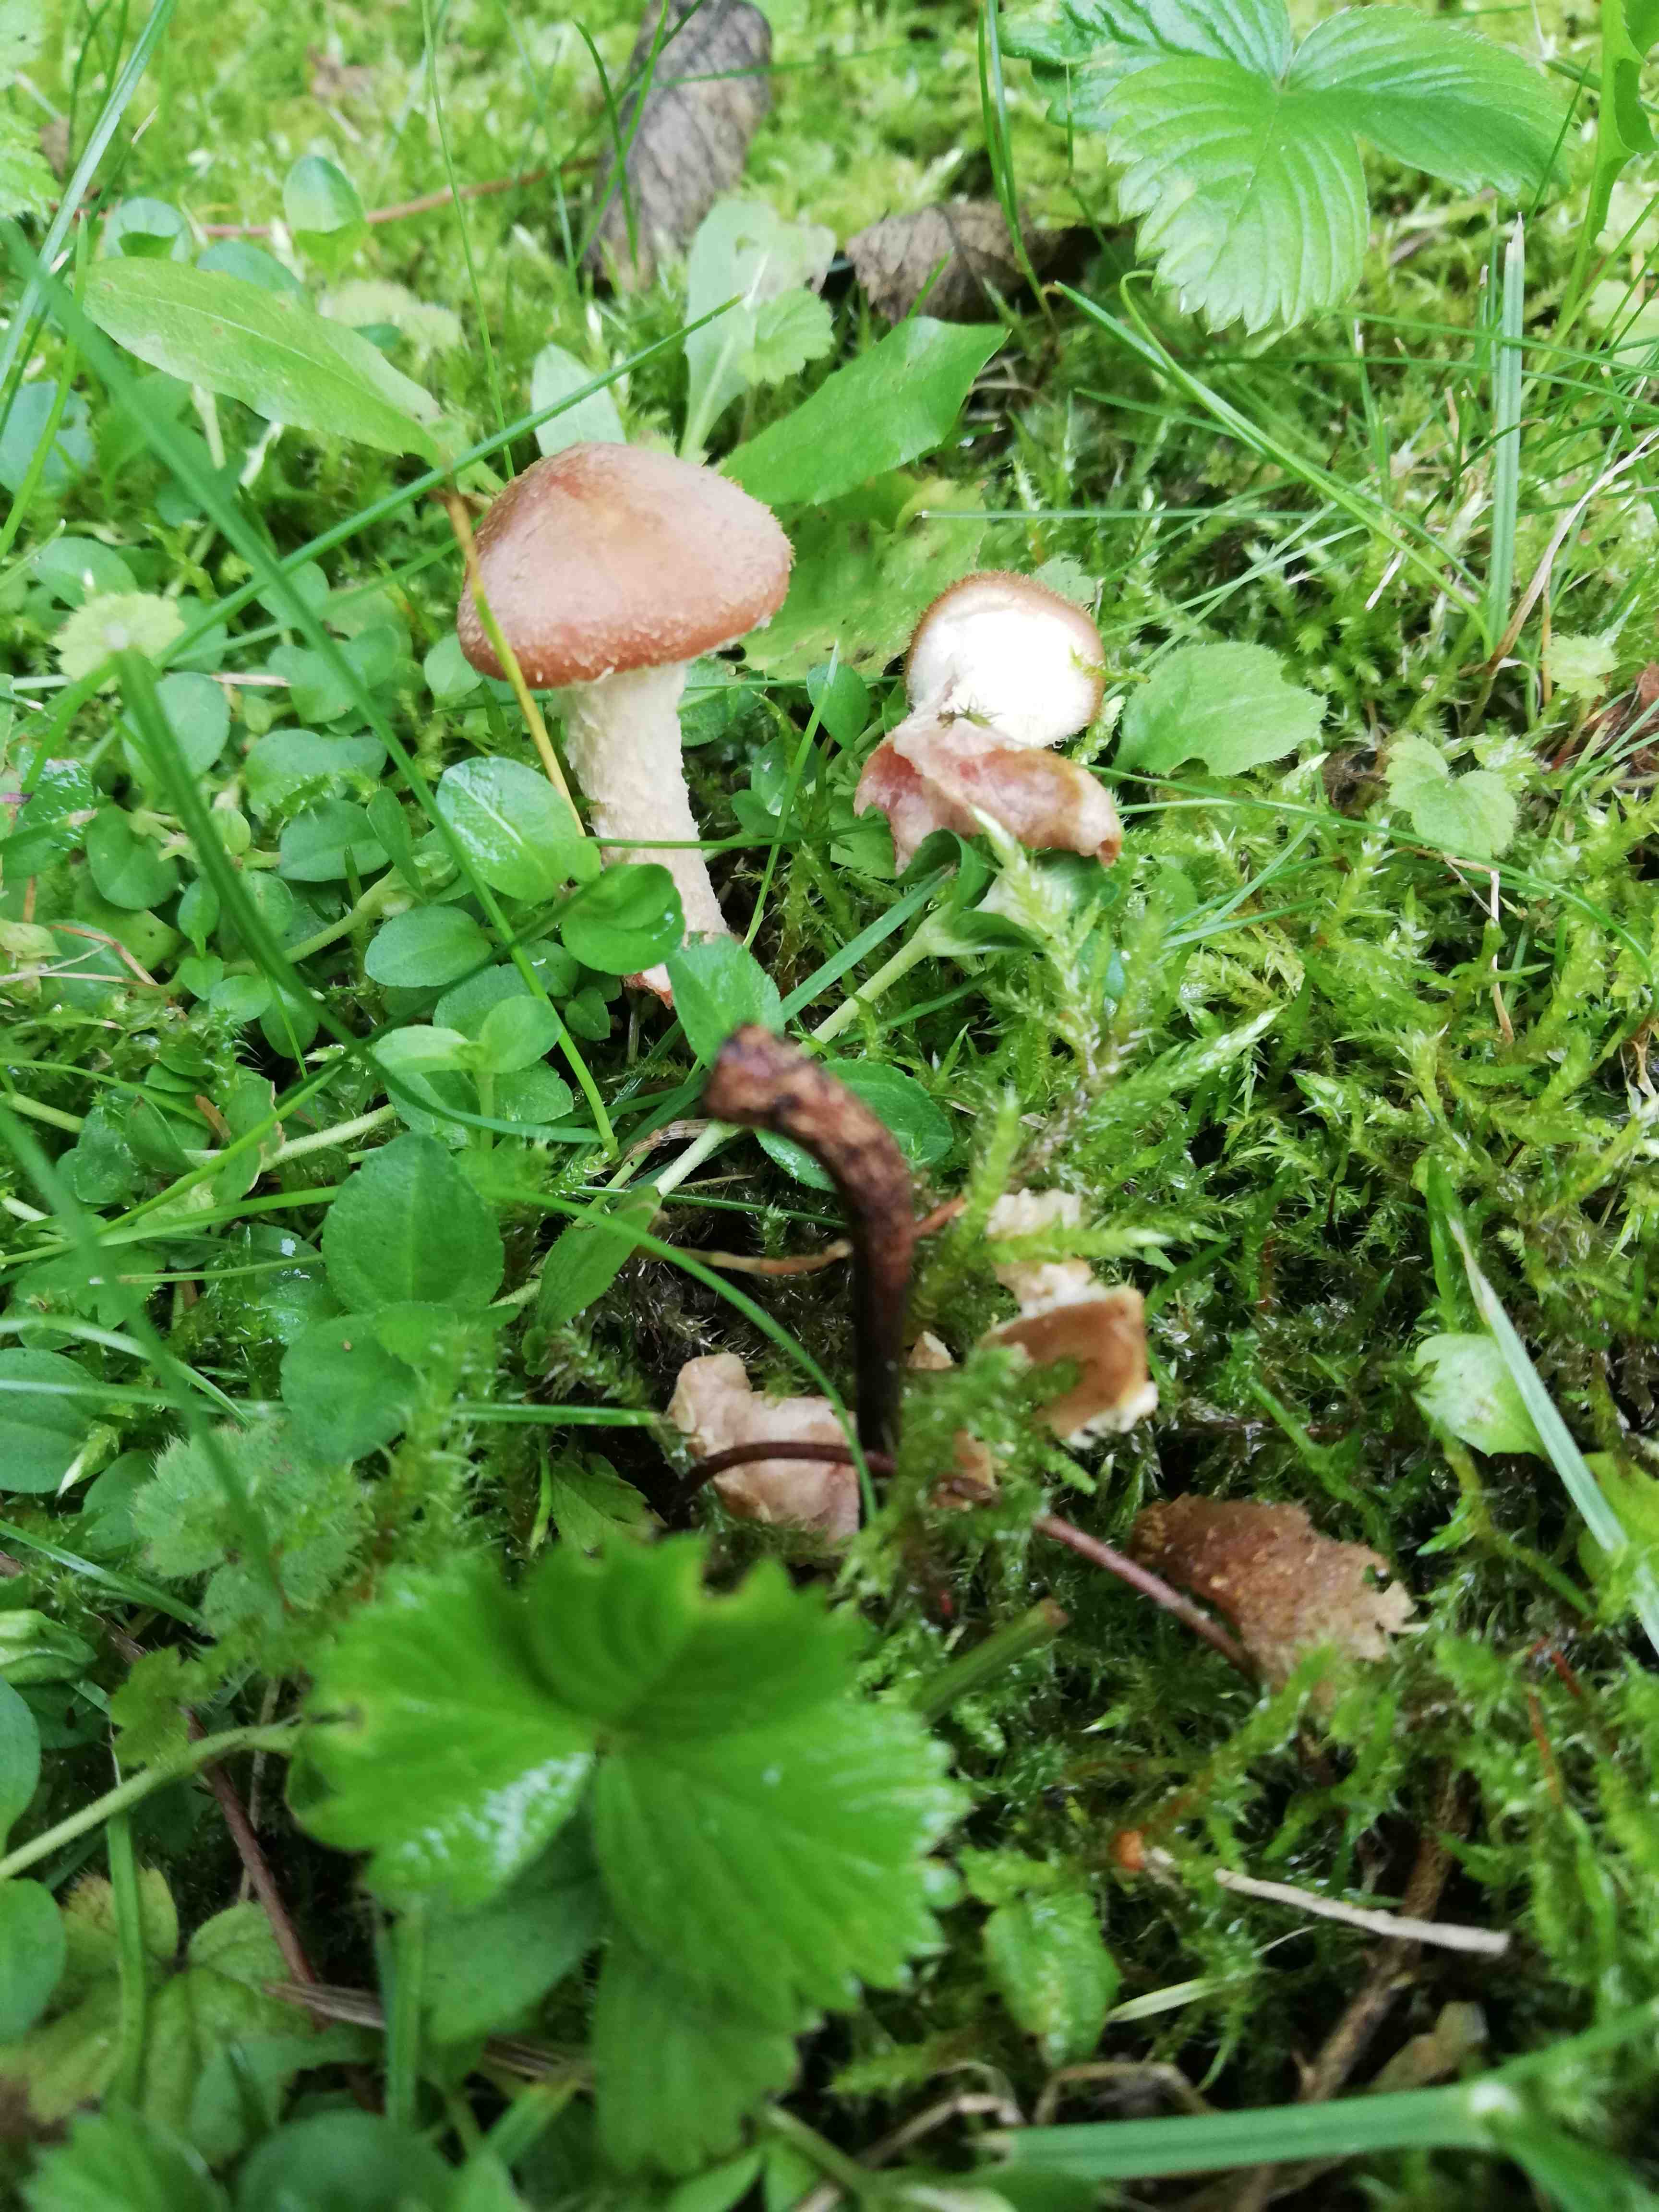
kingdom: Fungi
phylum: Basidiomycota
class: Agaricomycetes
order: Agaricales
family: Physalacriaceae
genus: Armillaria
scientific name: Armillaria
